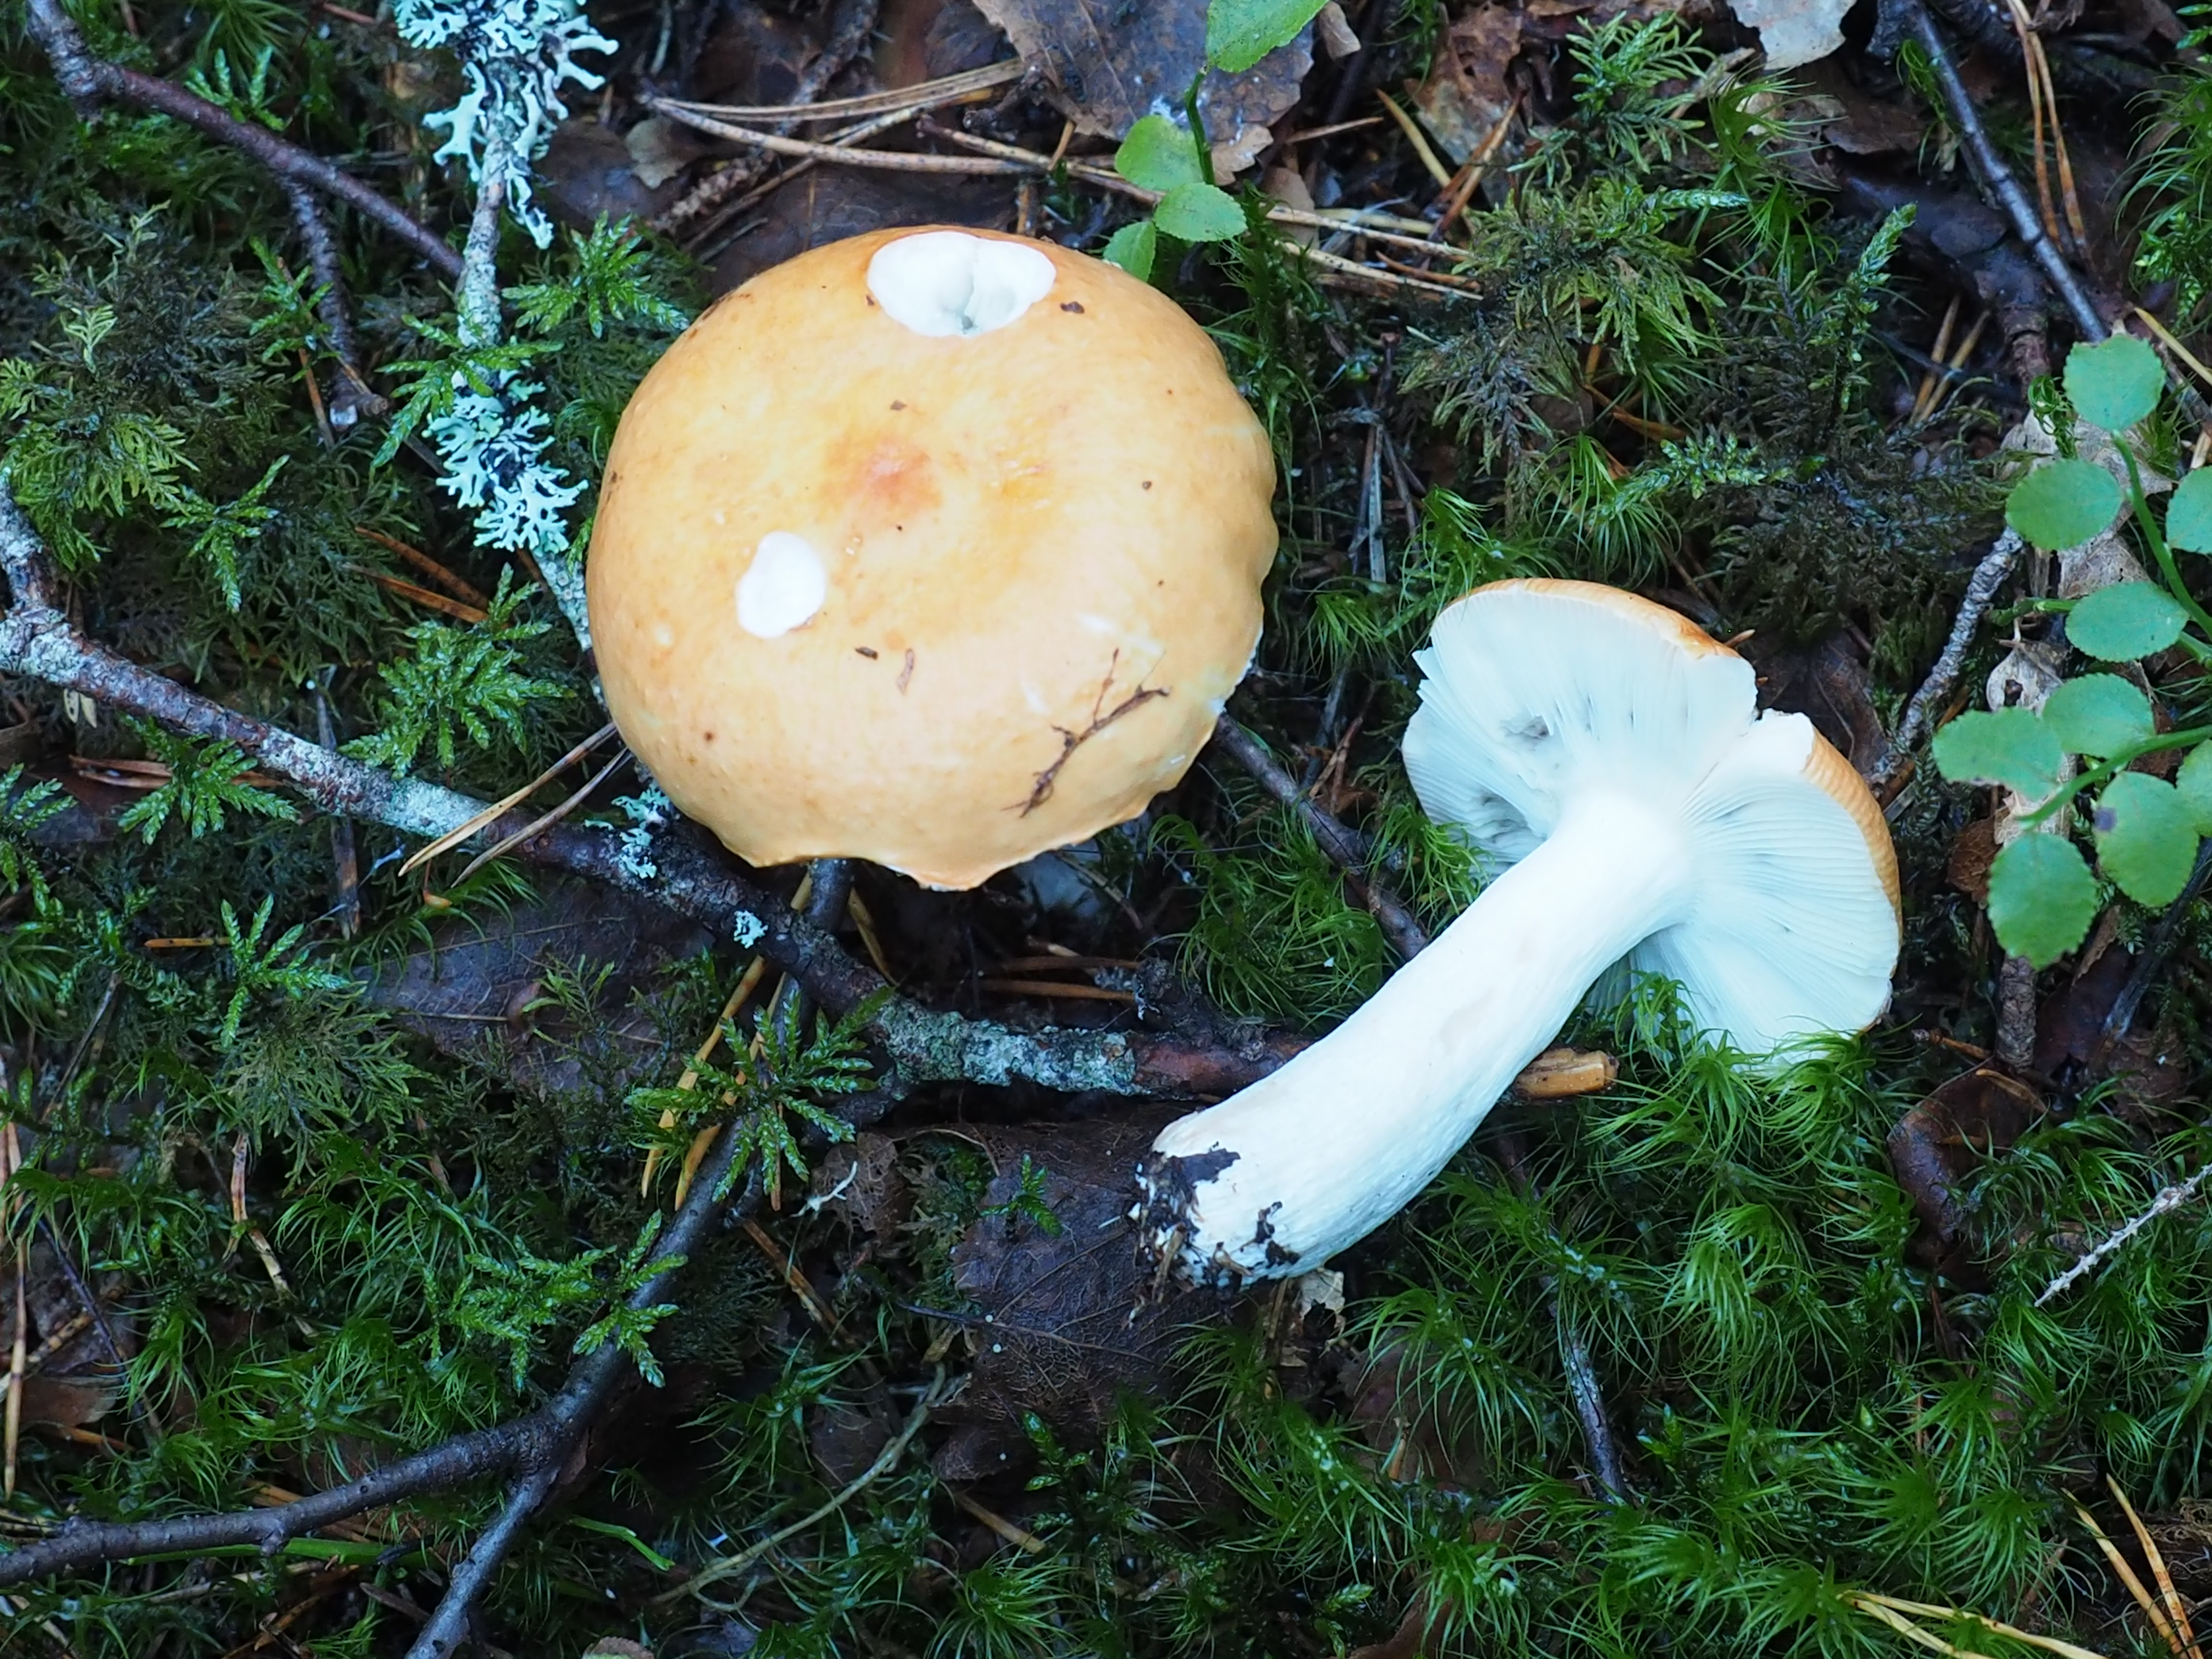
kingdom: Fungi
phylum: Basidiomycota
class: Agaricomycetes
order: Russulales
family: Russulaceae
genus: Russula
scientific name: Russula decolorans
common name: Copper brittlegill
